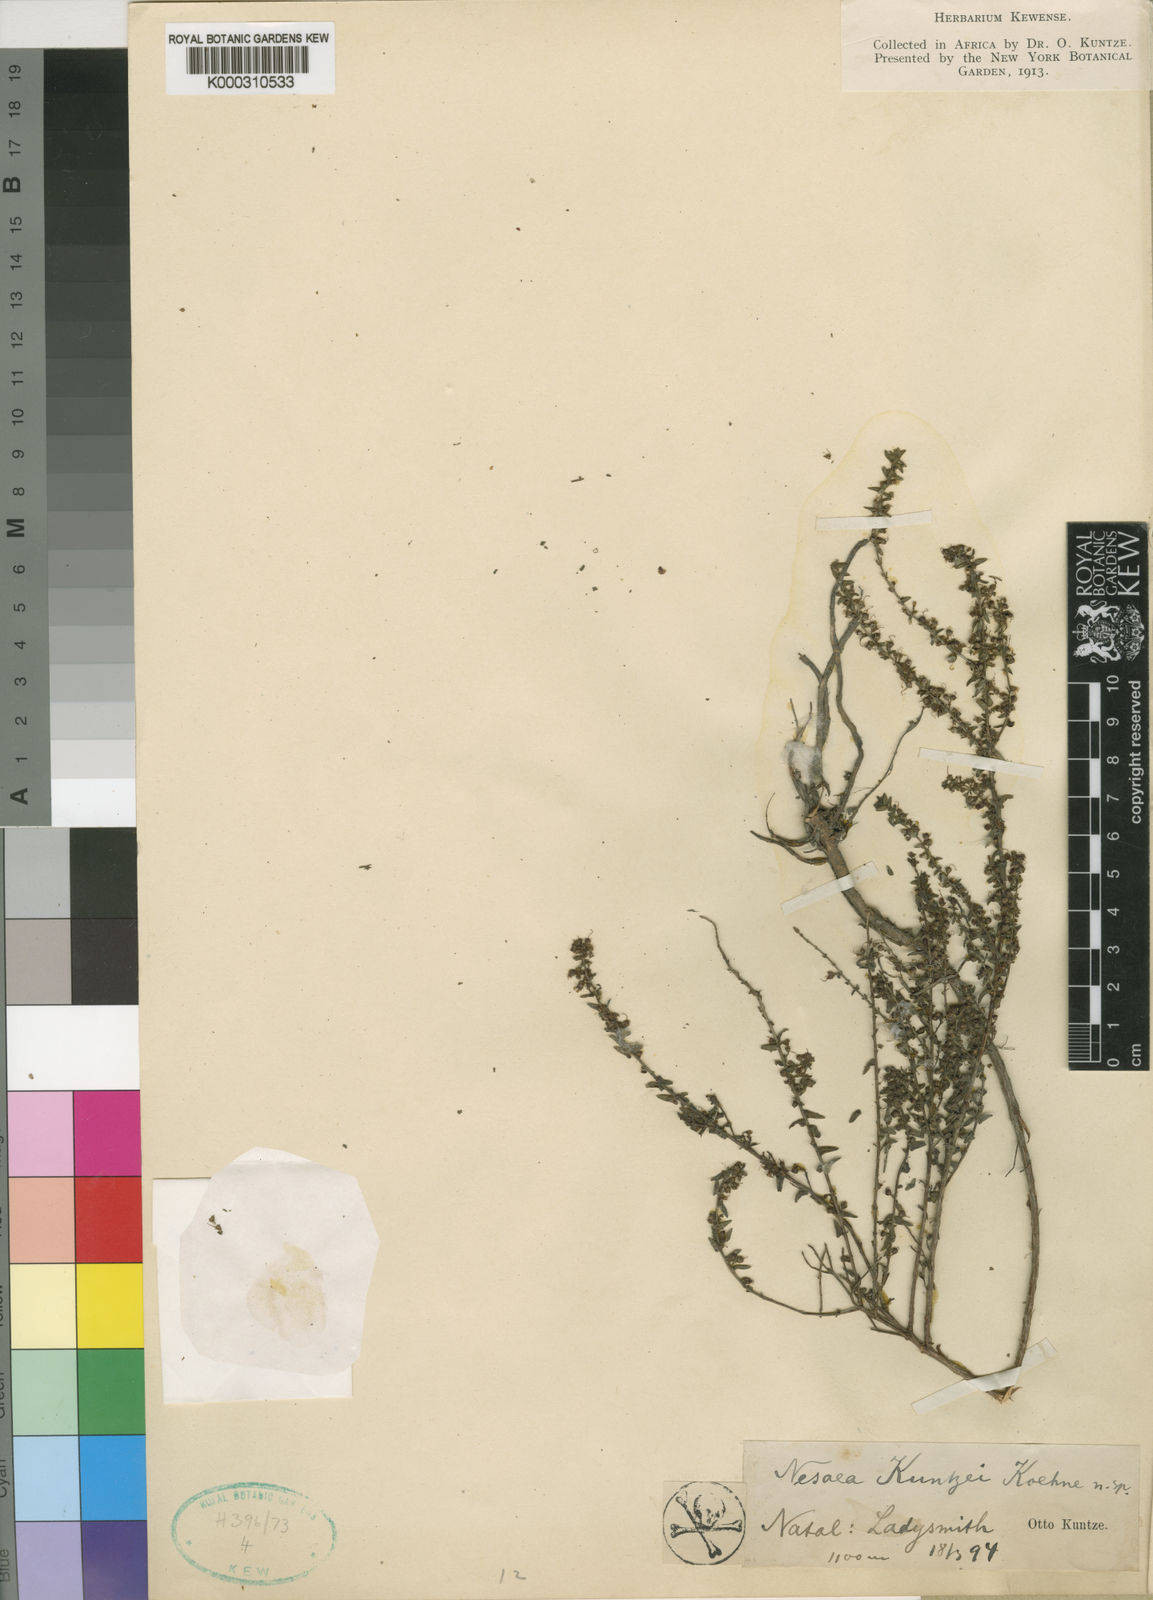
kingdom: Plantae
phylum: Tracheophyta
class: Magnoliopsida
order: Myrtales
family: Lythraceae
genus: Nesaea
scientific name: Nesaea
